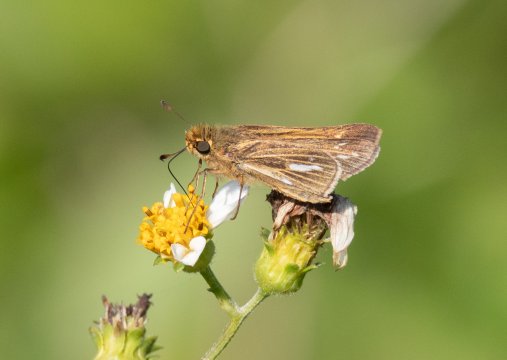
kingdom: Animalia
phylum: Arthropoda
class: Insecta
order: Lepidoptera
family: Hesperiidae
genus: Panoquina
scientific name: Panoquina panoquin
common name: Salt Marsh Skipper
